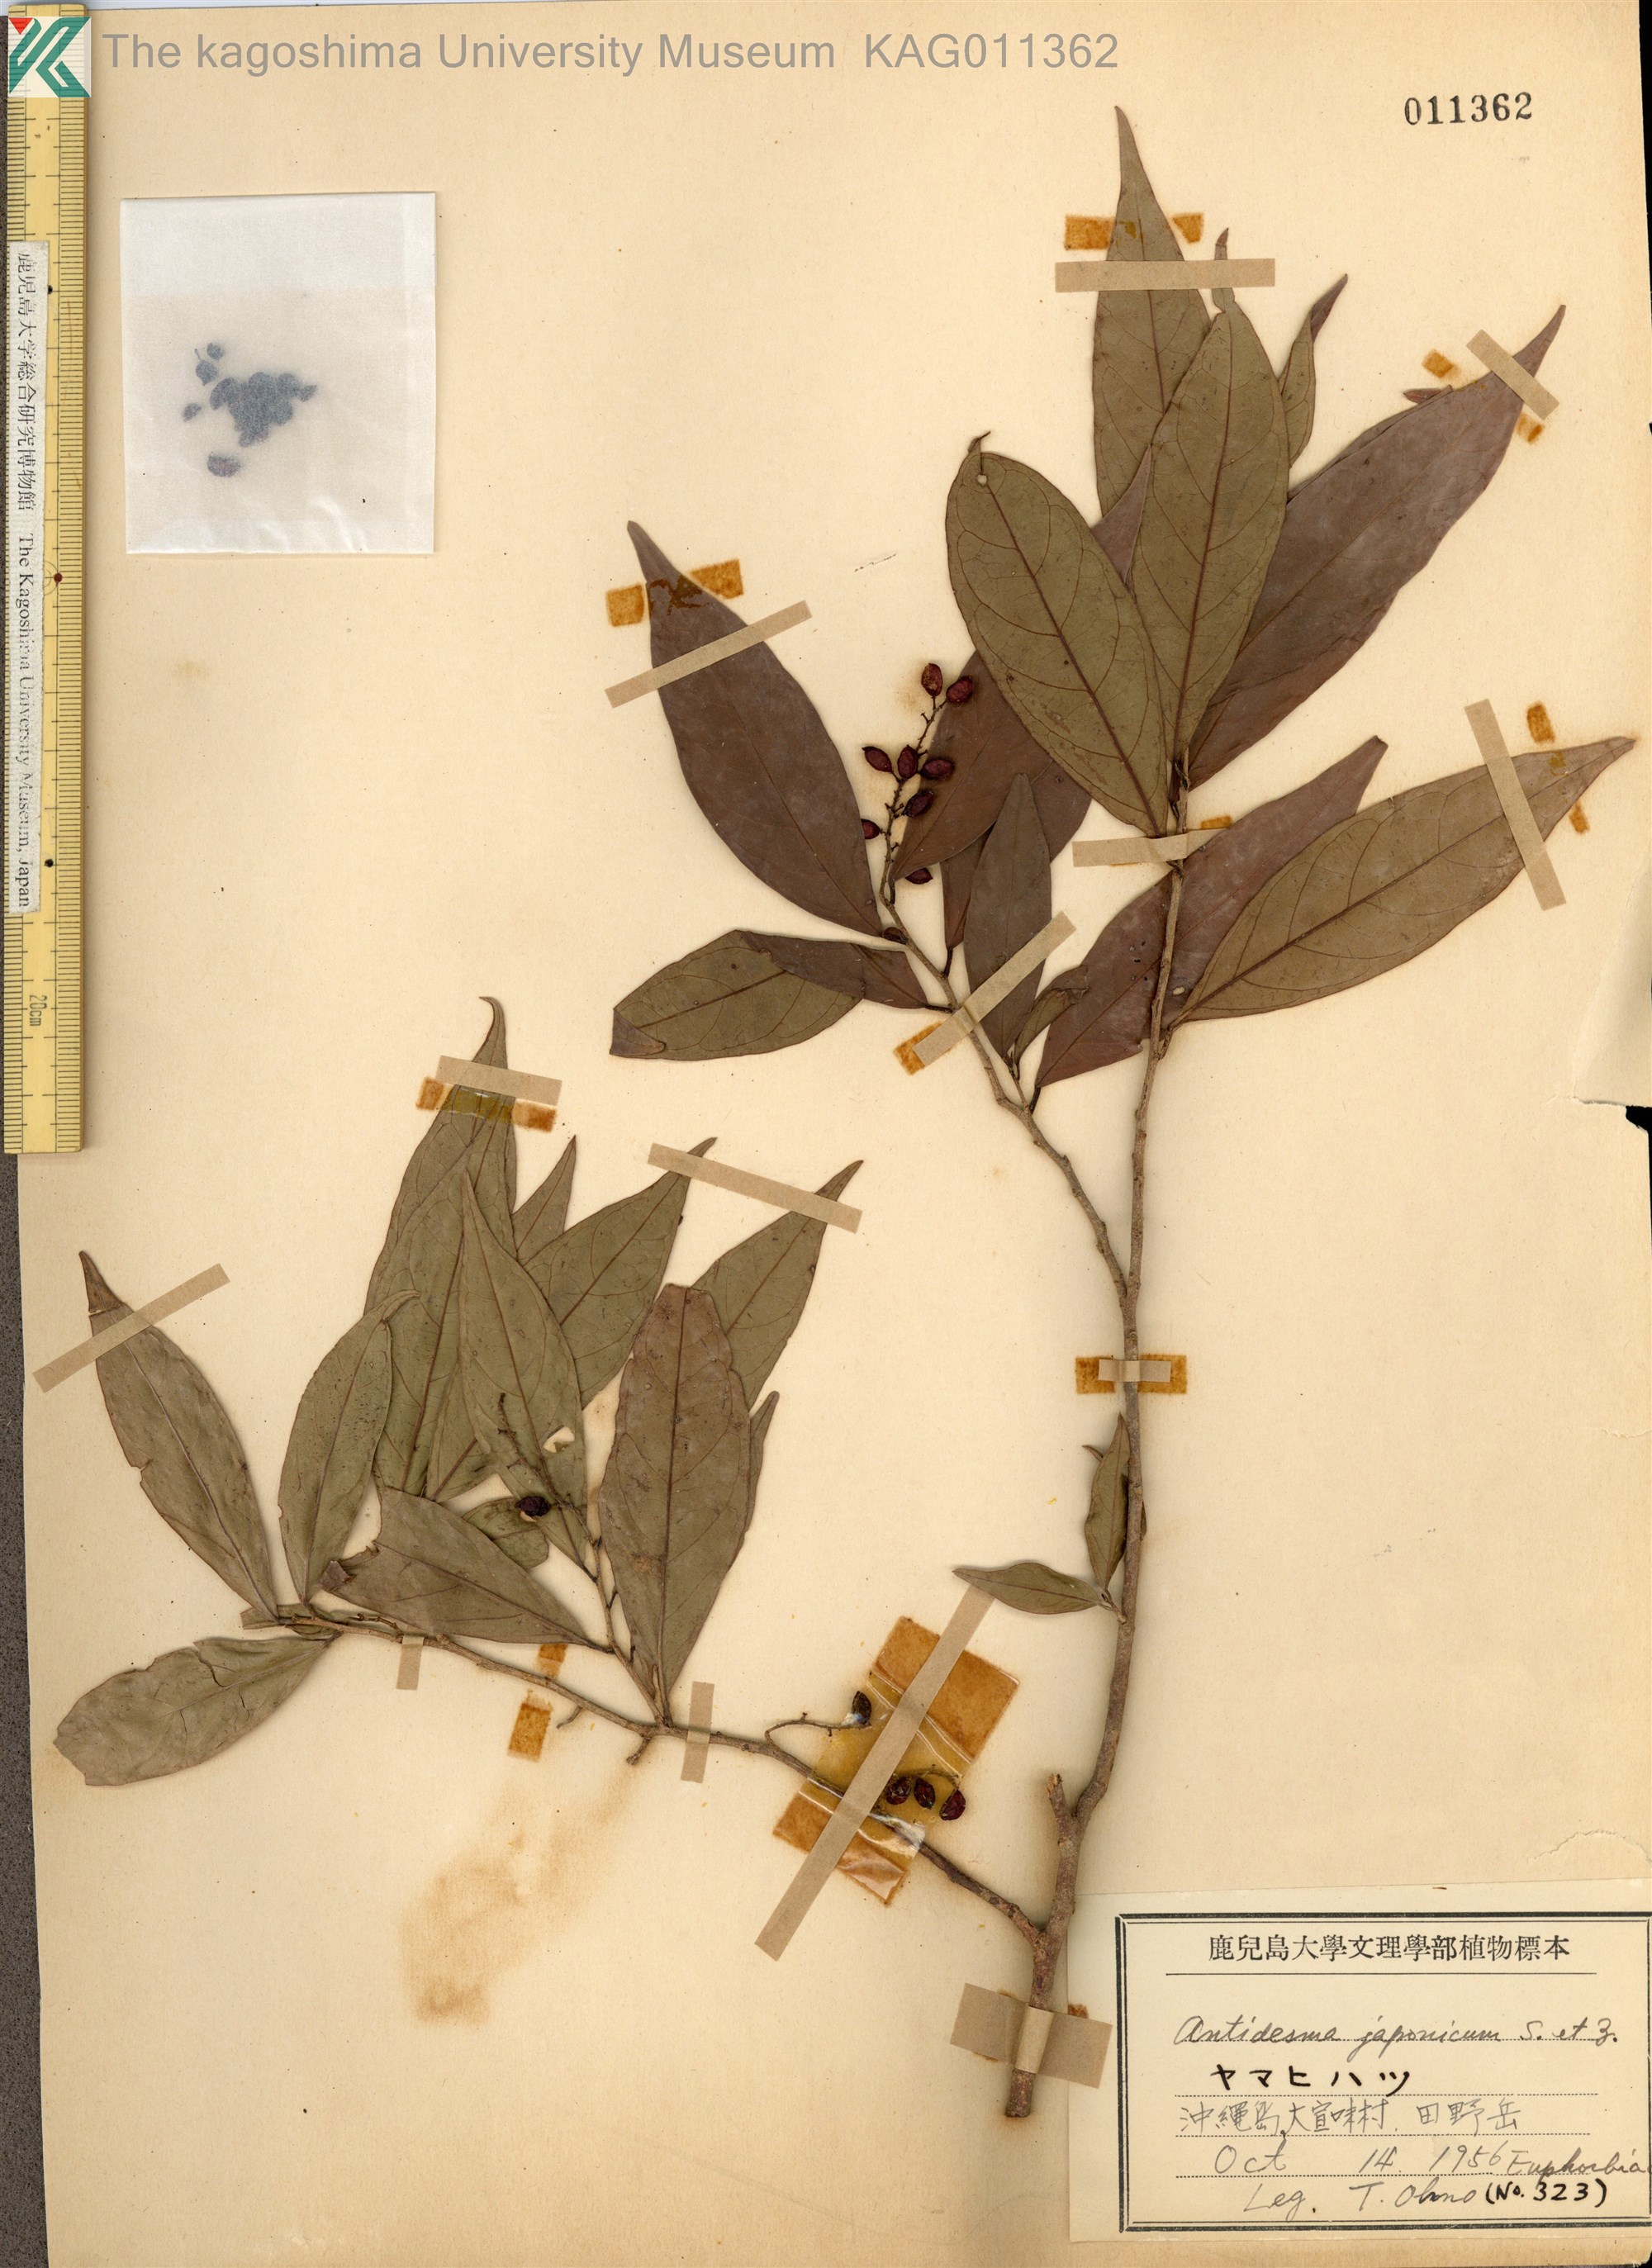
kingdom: Plantae
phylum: Tracheophyta
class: Magnoliopsida
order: Malpighiales
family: Phyllanthaceae
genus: Antidesma
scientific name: Antidesma japonicum
